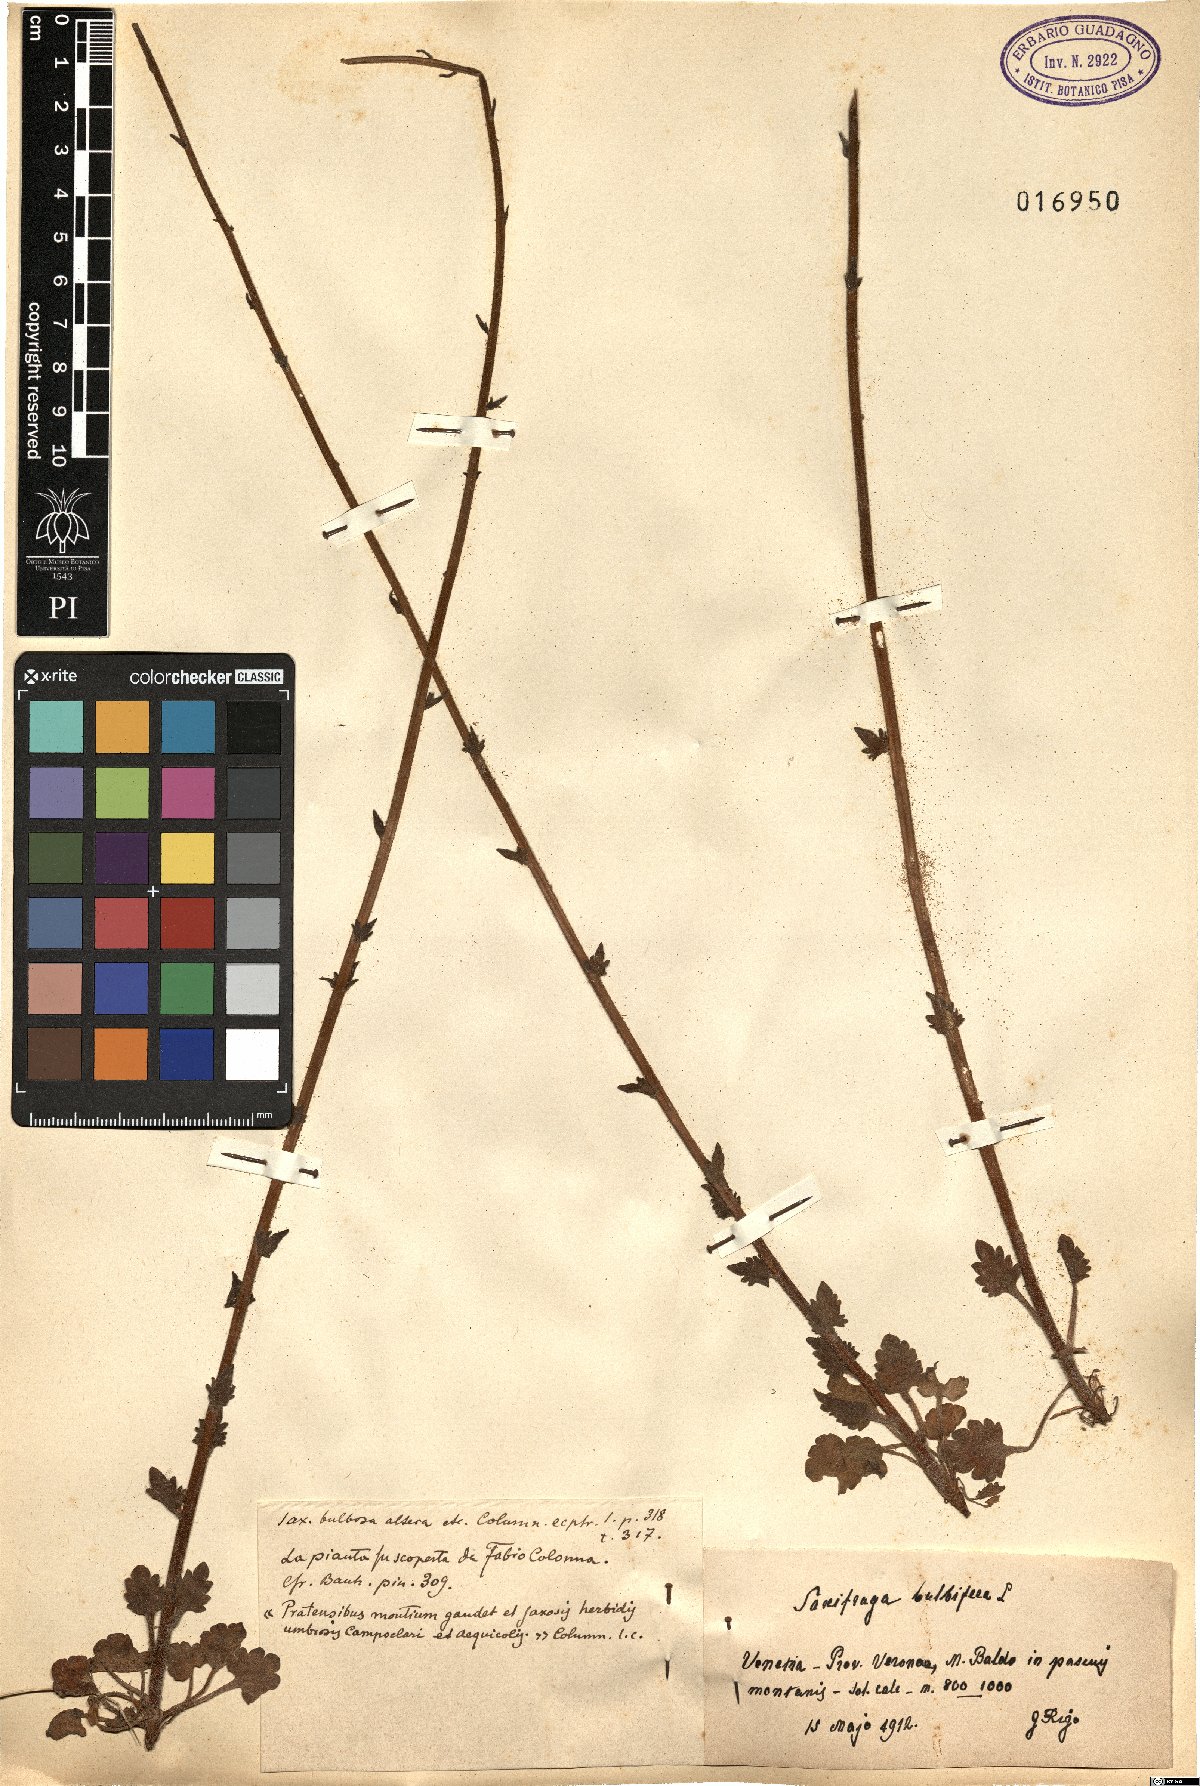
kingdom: Plantae
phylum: Tracheophyta
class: Magnoliopsida
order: Saxifragales
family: Saxifragaceae
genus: Saxifraga
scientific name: Saxifraga bulbifera
